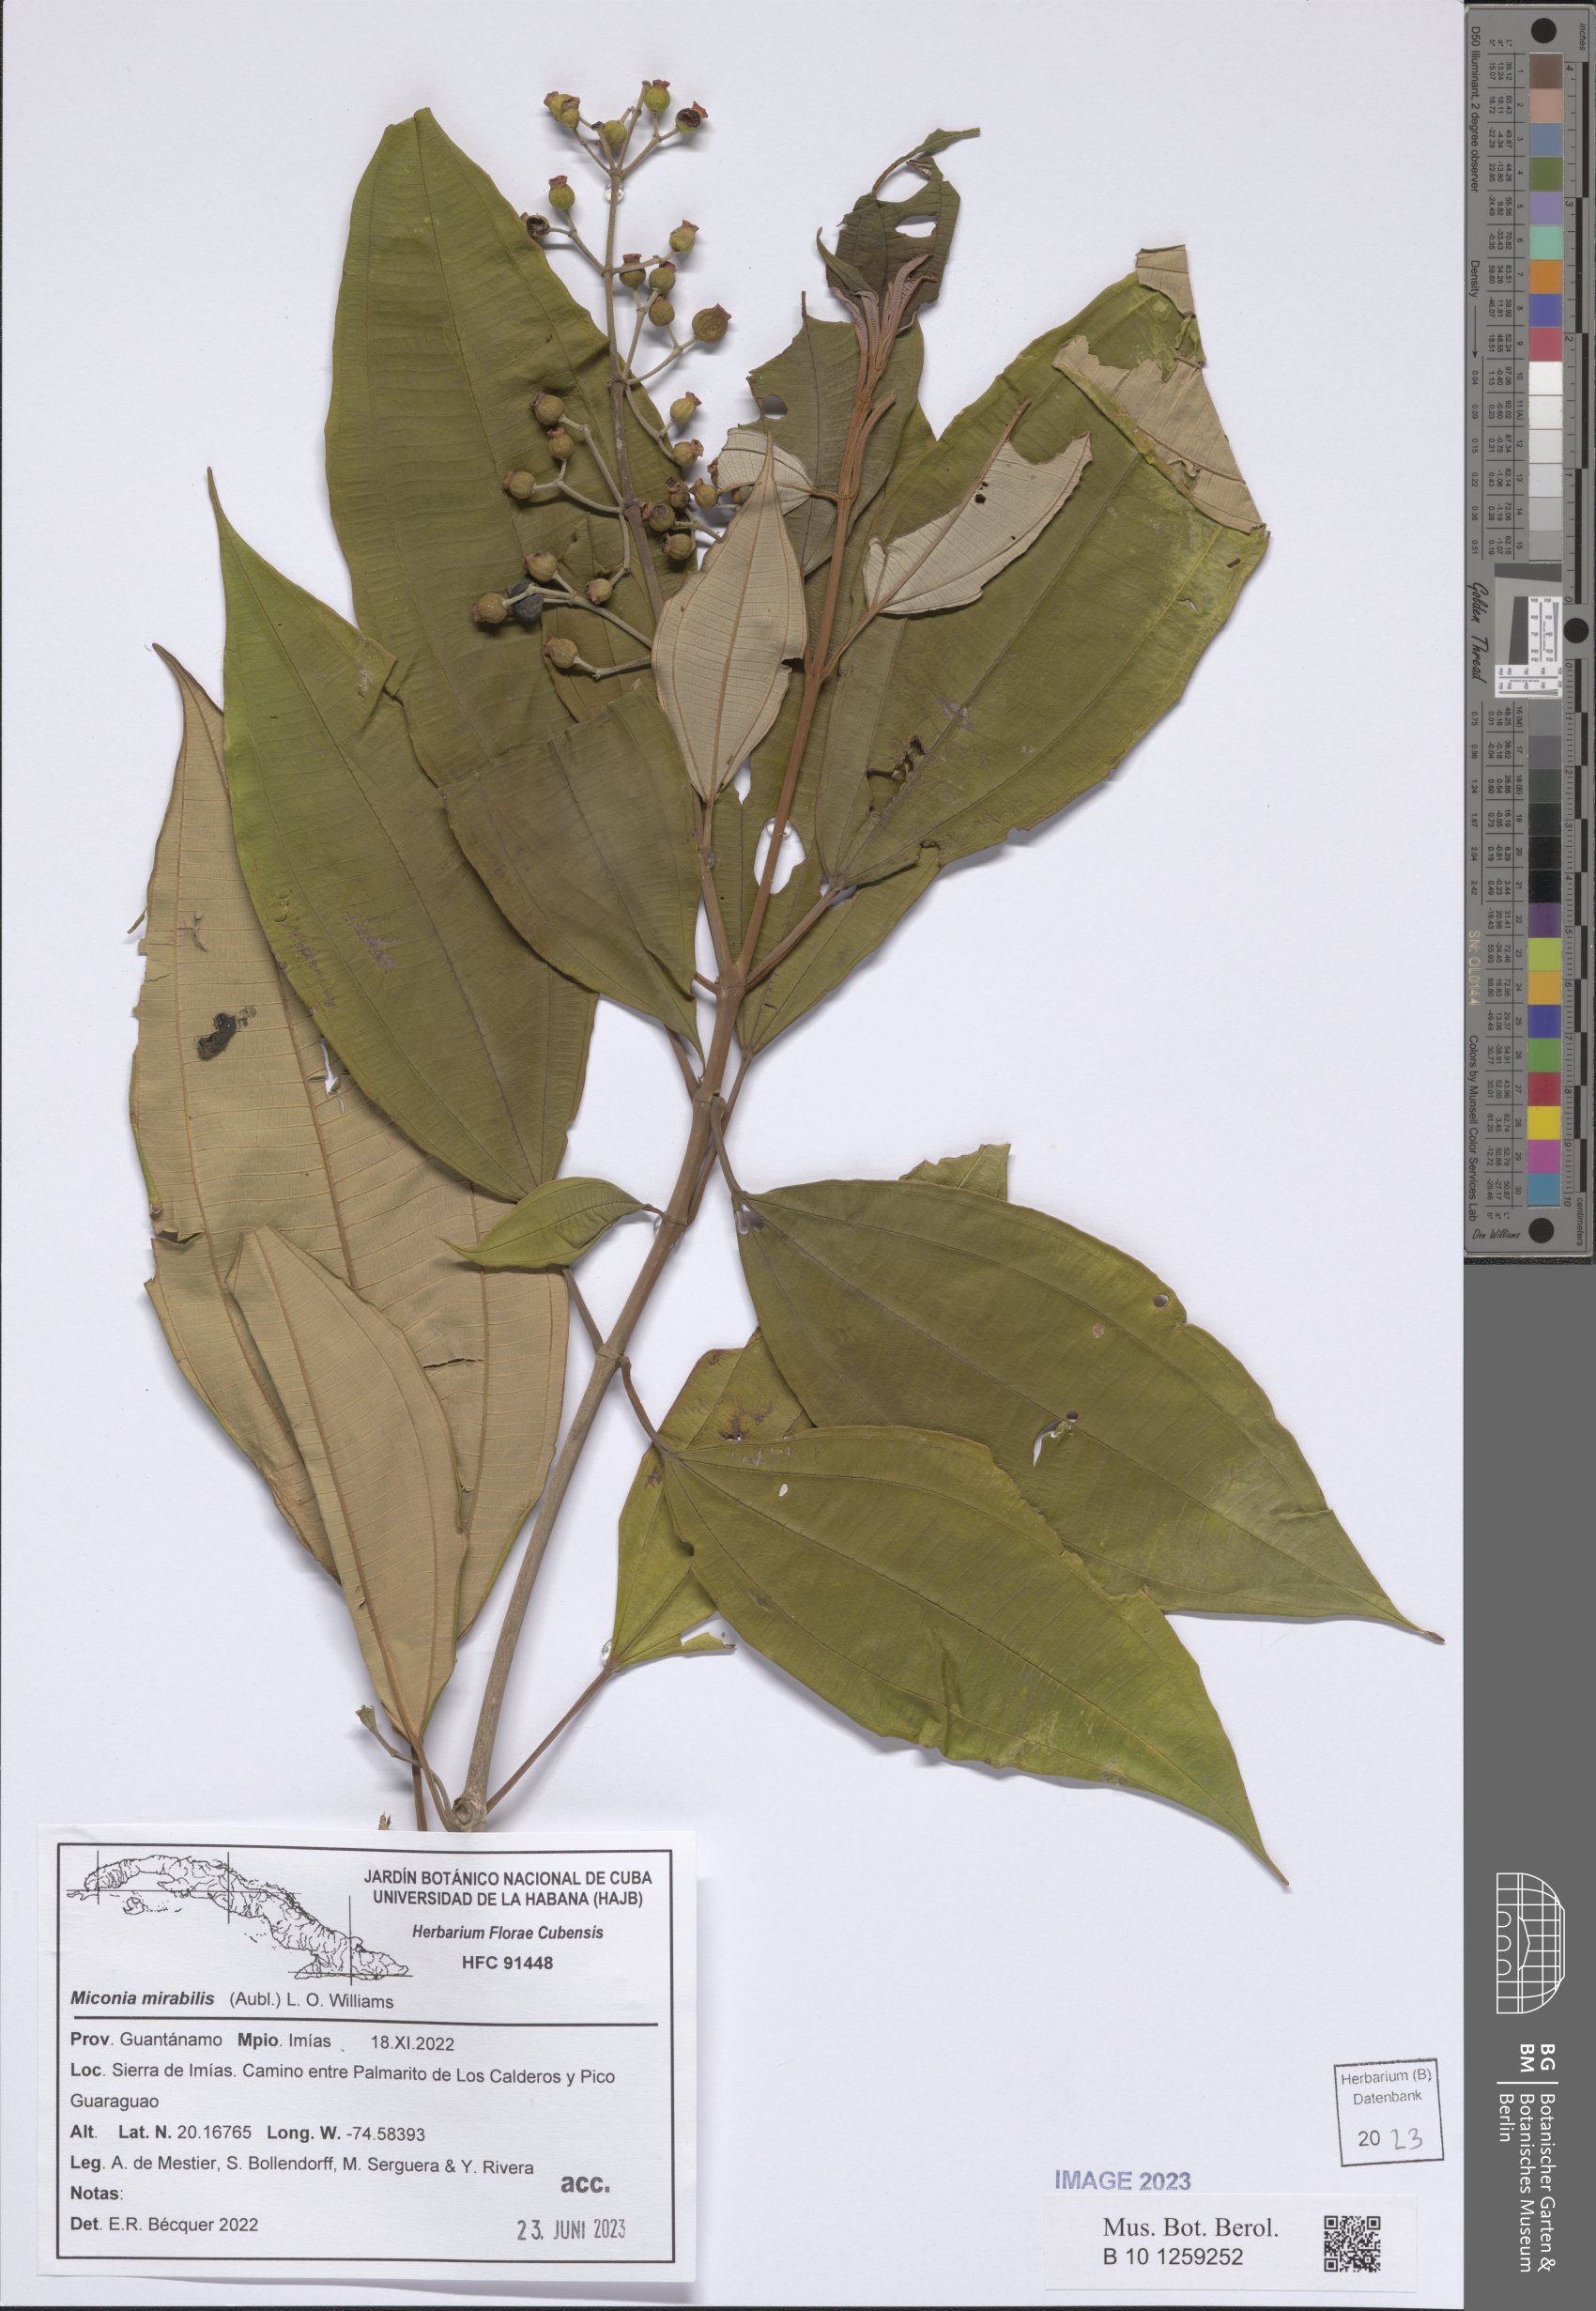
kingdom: Plantae
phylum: Tracheophyta
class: Magnoliopsida
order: Myrtales
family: Melastomataceae
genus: Miconia
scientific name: Miconia mirabilis
